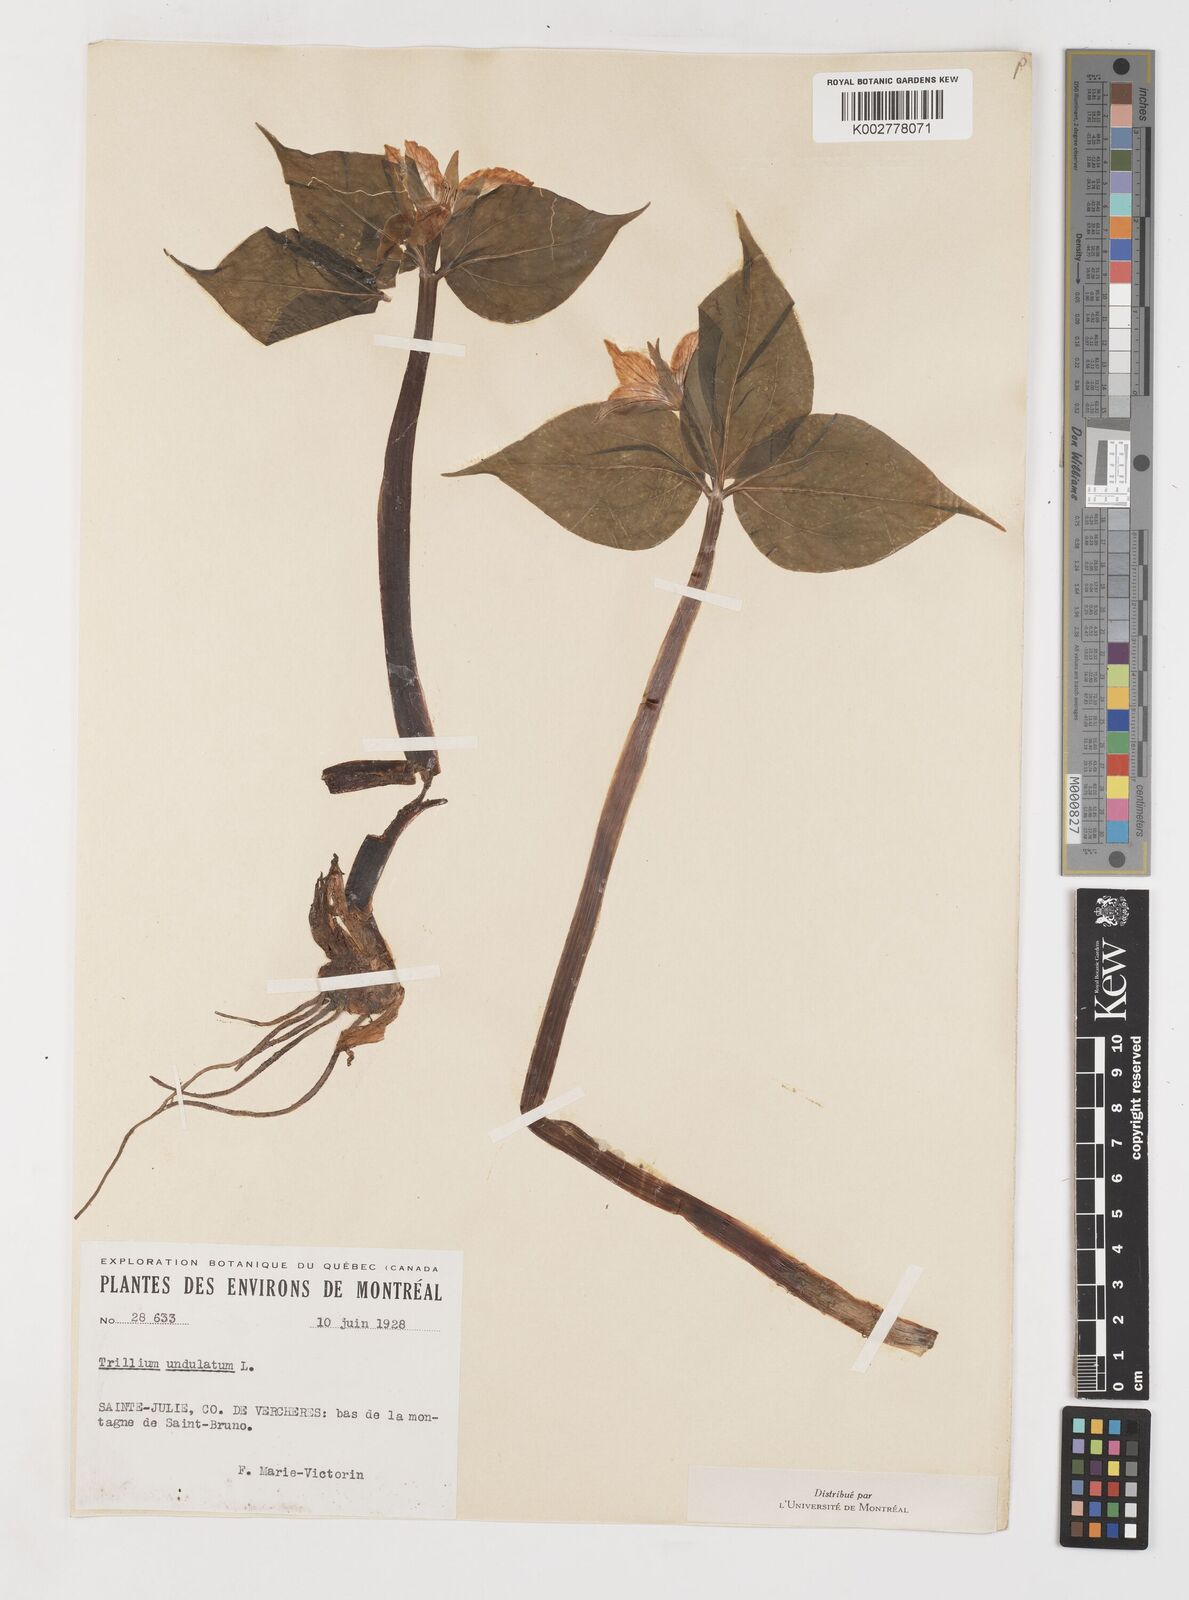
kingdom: Plantae
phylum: Tracheophyta
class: Liliopsida
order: Liliales
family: Melanthiaceae
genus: Trillium
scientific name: Trillium undulatum
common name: Paint trillium
